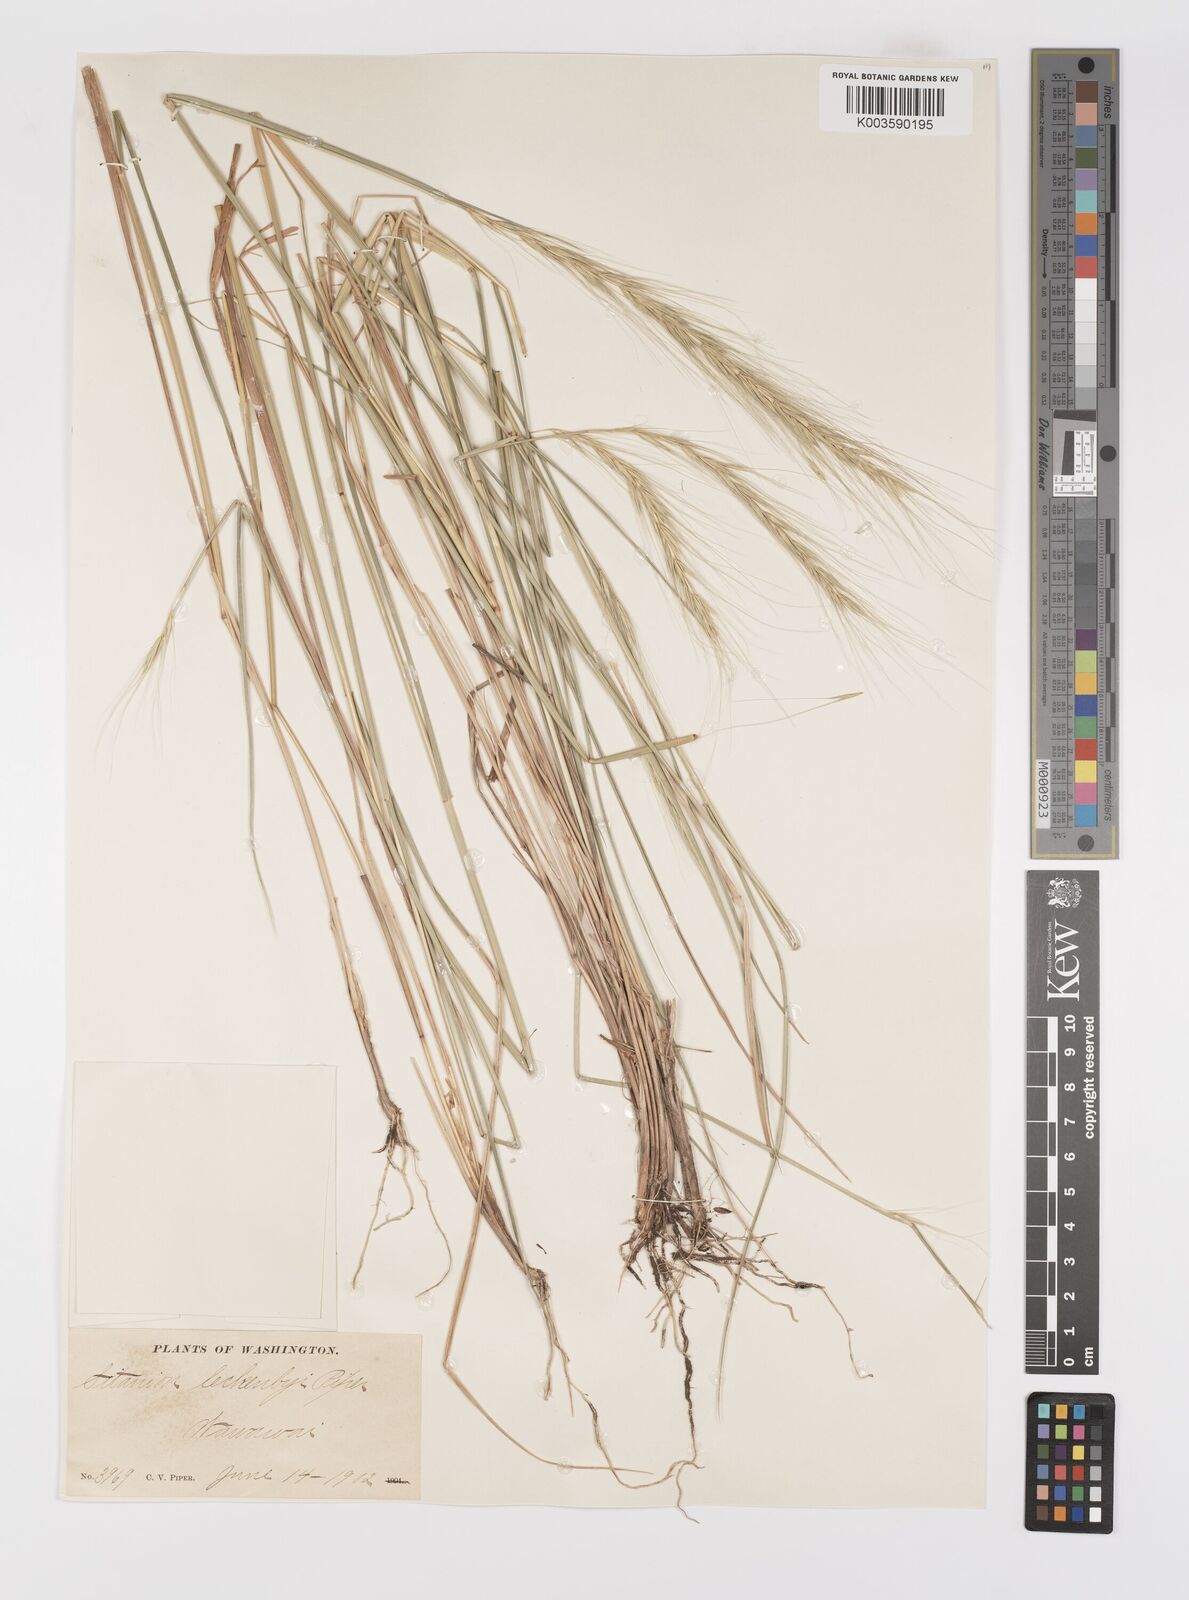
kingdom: Plantae
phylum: Tracheophyta
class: Liliopsida
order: Poales
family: Poaceae
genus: Elymus
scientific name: Elymus hansenii
